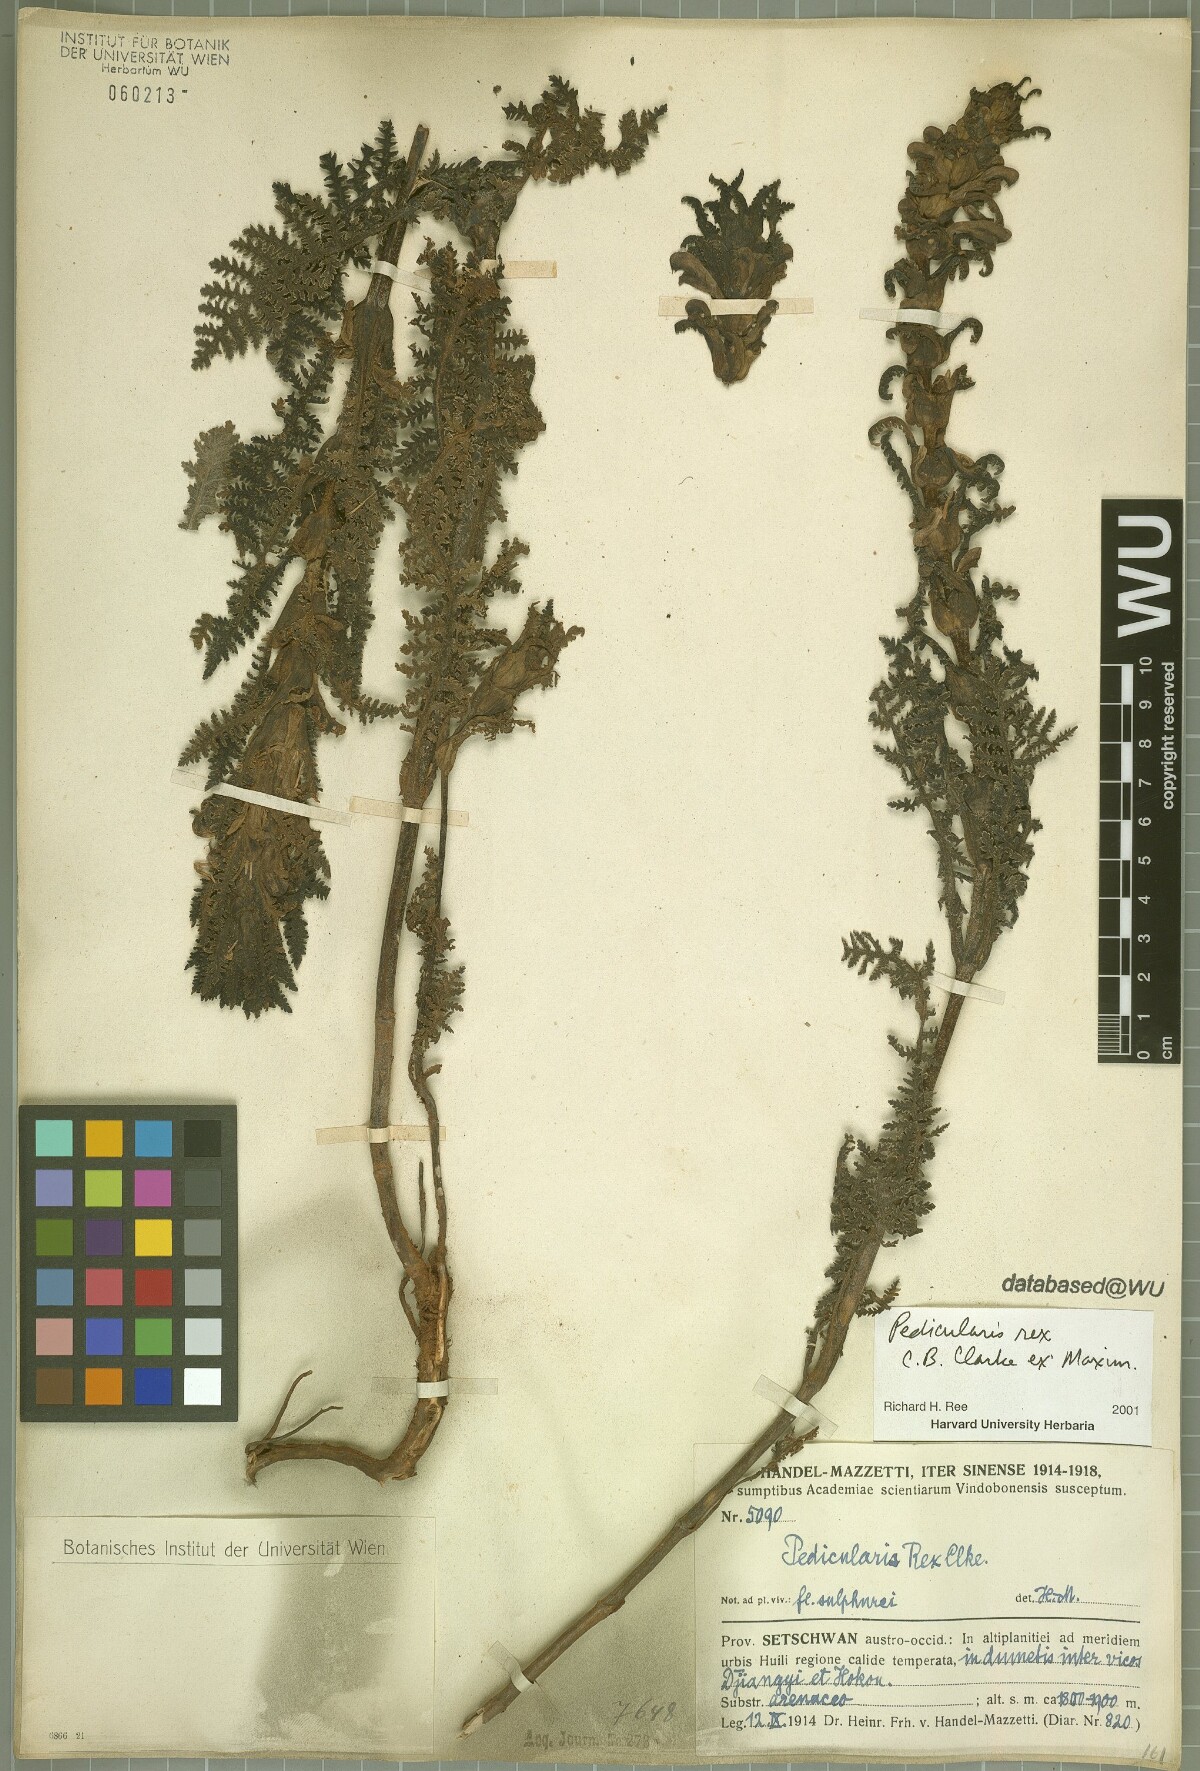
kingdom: Plantae
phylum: Tracheophyta
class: Magnoliopsida
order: Lamiales
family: Orobanchaceae
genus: Pedicularis
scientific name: Pedicularis rex
